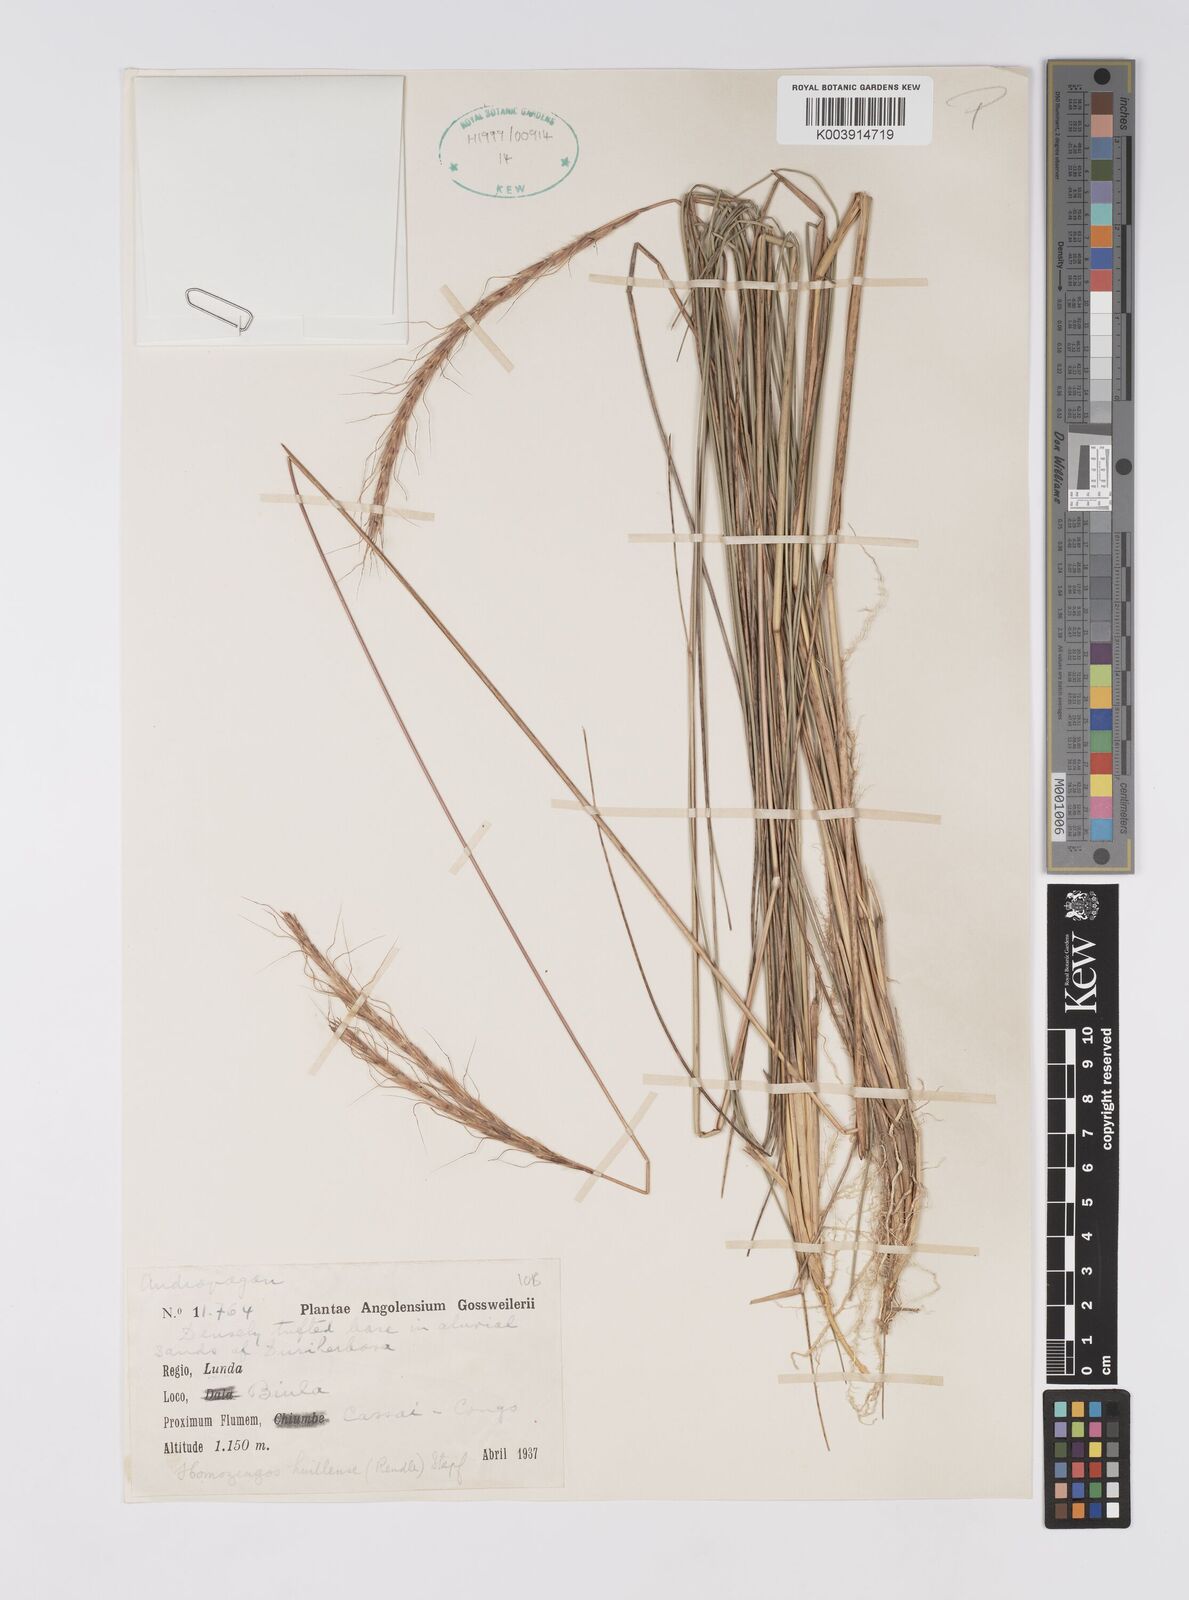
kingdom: Plantae
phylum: Tracheophyta
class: Liliopsida
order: Poales
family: Poaceae
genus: Homozeugos
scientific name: Homozeugos eylesii
